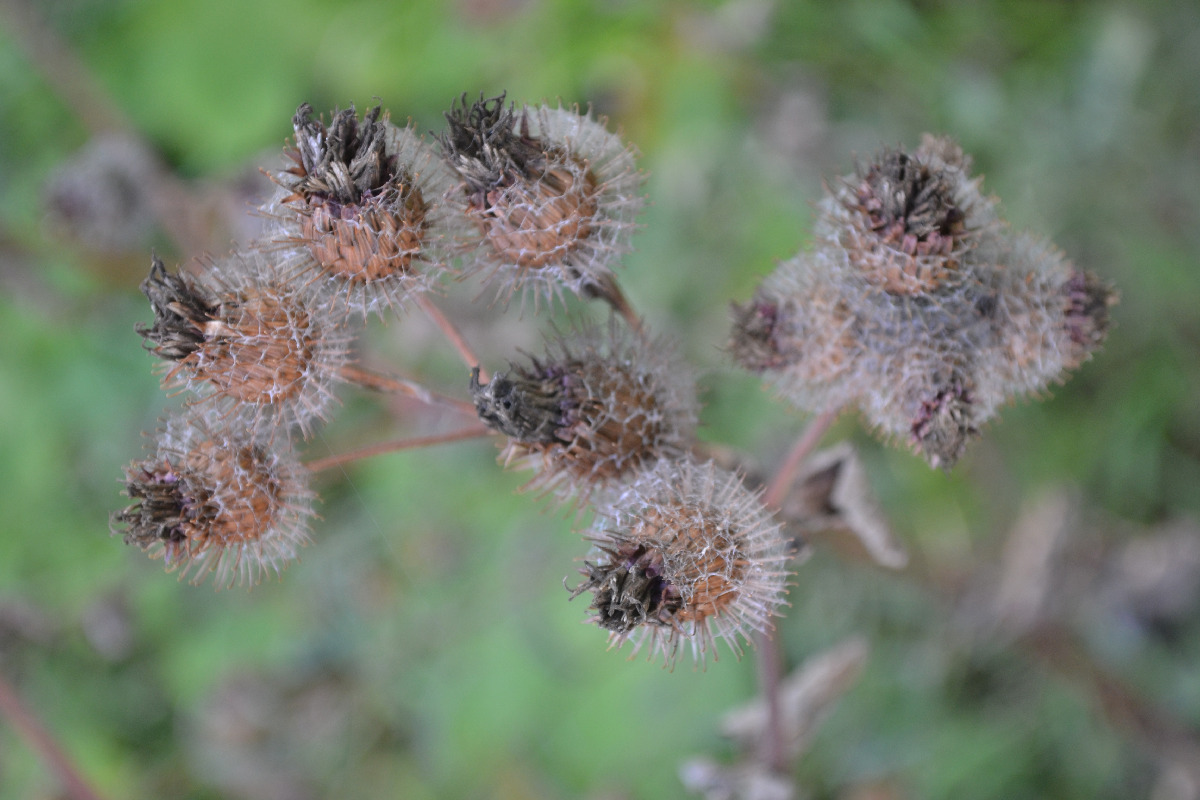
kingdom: Plantae
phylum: Tracheophyta
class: Magnoliopsida
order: Asterales
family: Asteraceae
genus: Arctium
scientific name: Arctium lappa
